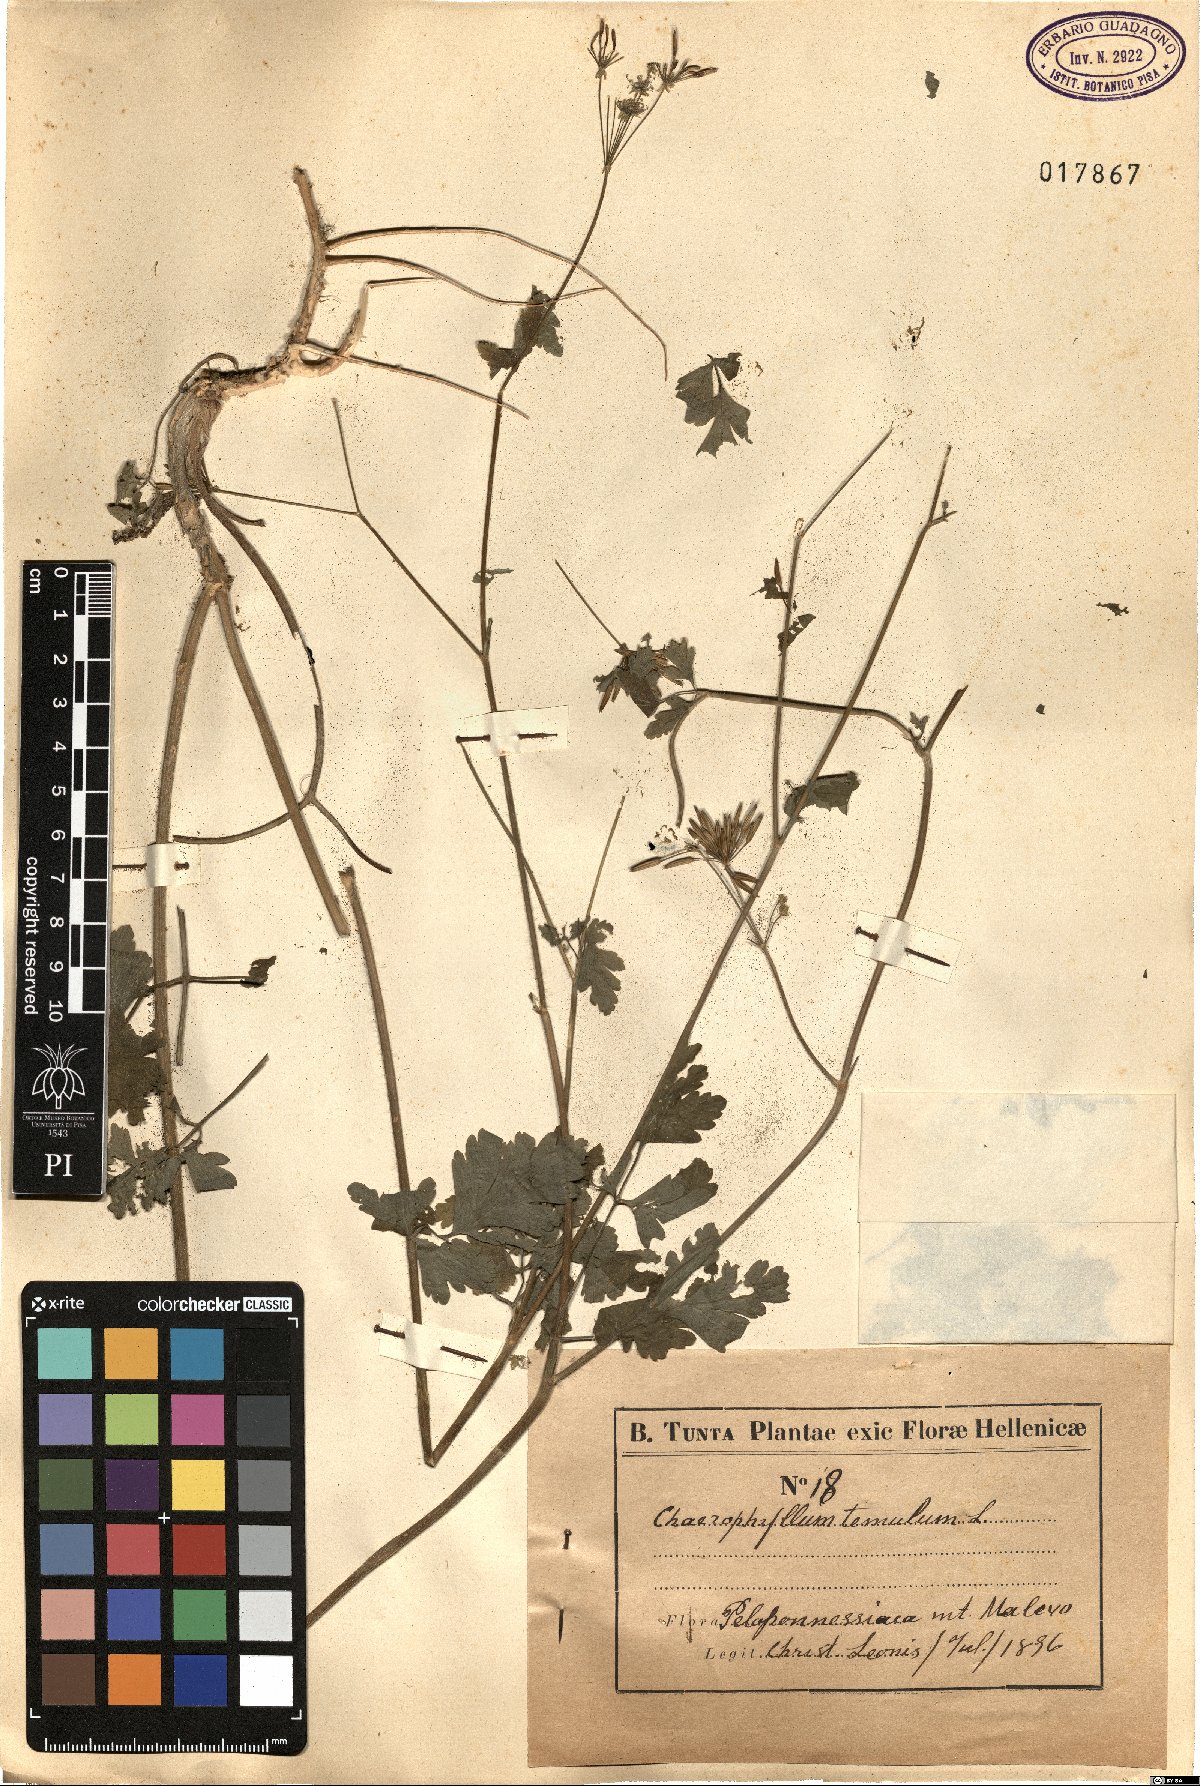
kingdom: Plantae
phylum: Tracheophyta
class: Magnoliopsida
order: Apiales
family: Apiaceae
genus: Chaerophyllum
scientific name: Chaerophyllum temulum
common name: Rough chervil
